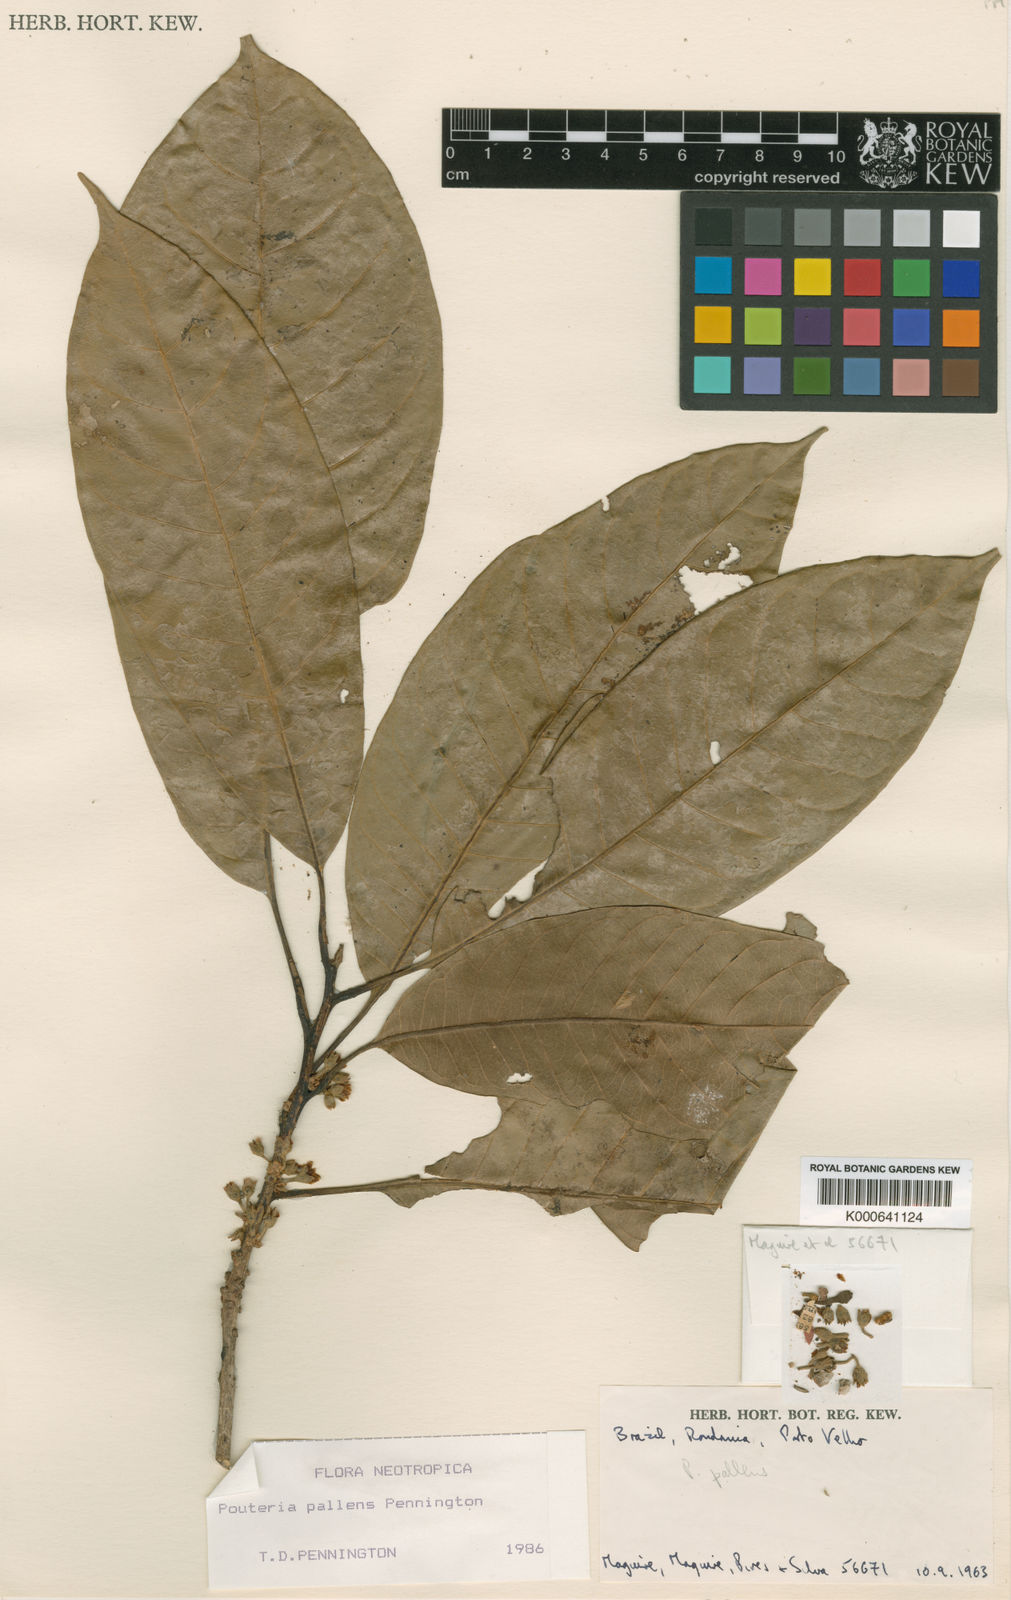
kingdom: Plantae
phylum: Tracheophyta
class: Magnoliopsida
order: Ericales
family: Sapotaceae
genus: Pouteria
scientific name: Pouteria pallens
